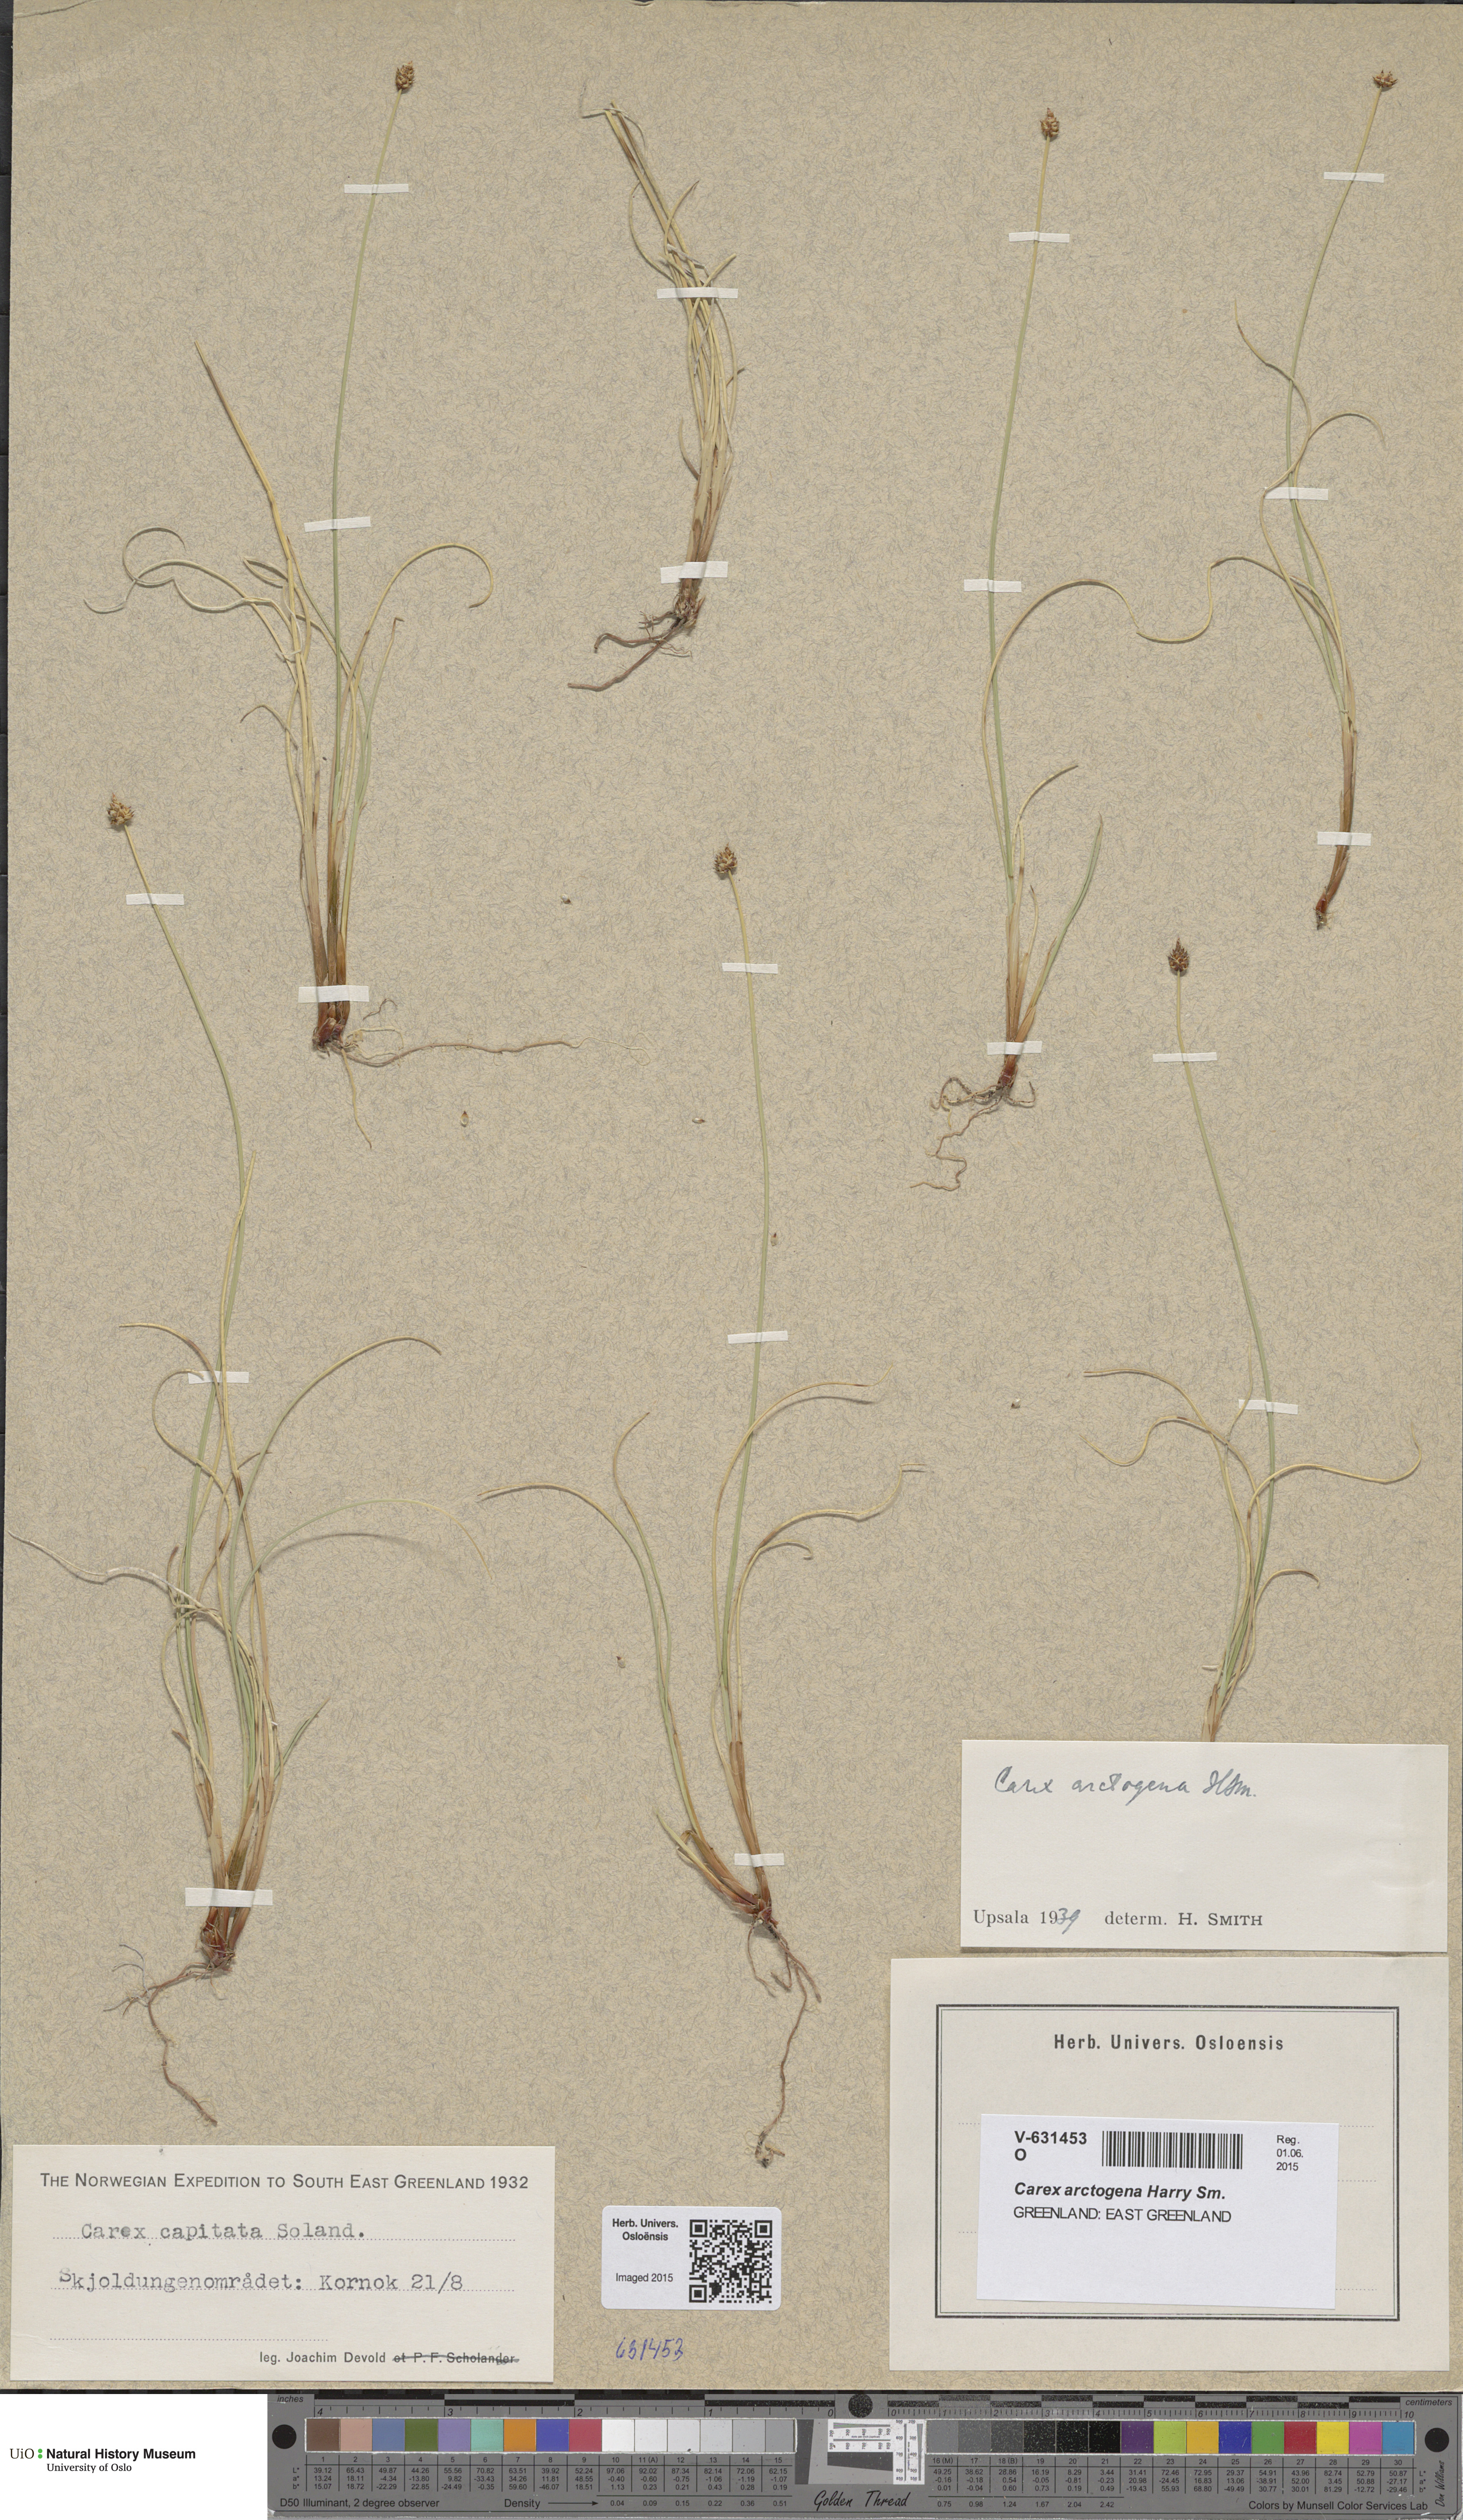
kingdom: Plantae
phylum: Tracheophyta
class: Liliopsida
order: Poales
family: Cyperaceae
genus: Carex
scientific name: Carex arctogena
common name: Black sedge
